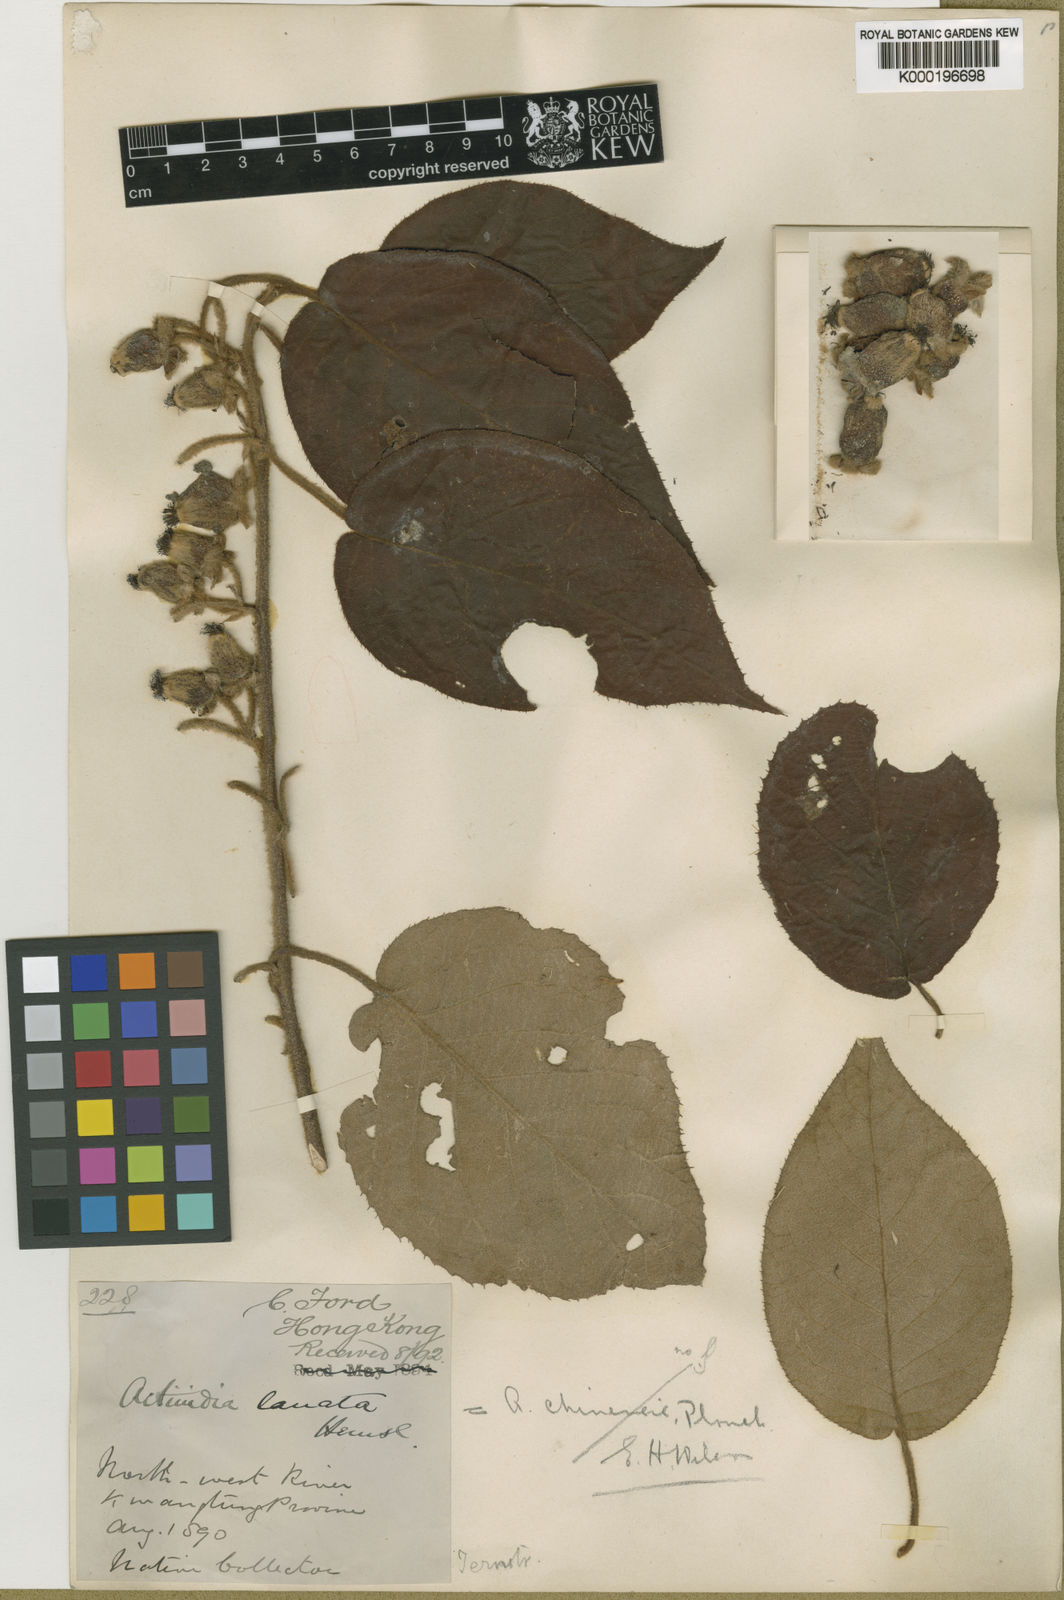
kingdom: Plantae
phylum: Tracheophyta
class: Magnoliopsida
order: Ericales
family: Actinidiaceae
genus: Actinidia
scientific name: Actinidia
